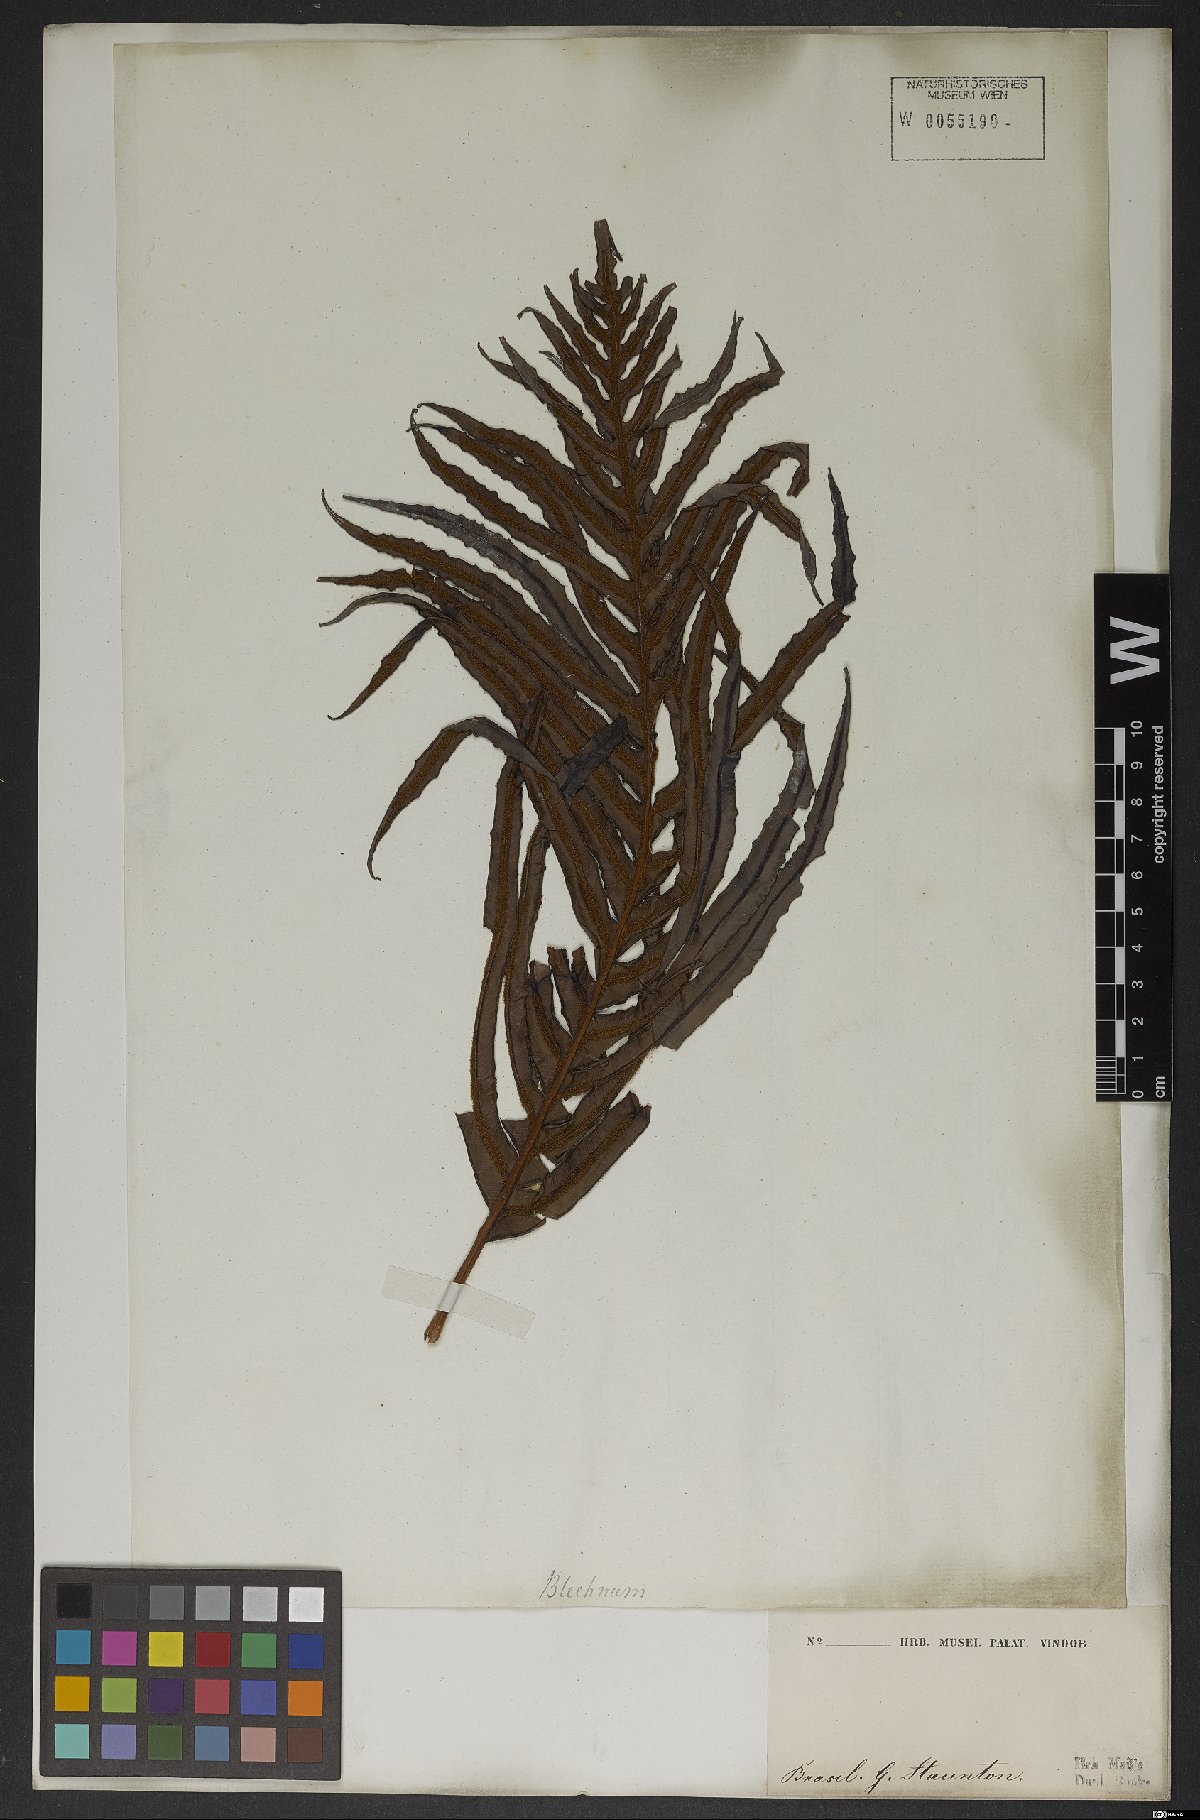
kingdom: Plantae
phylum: Tracheophyta
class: Polypodiopsida
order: Polypodiales
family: Blechnaceae
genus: Neoblechnum
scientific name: Neoblechnum brasiliense
